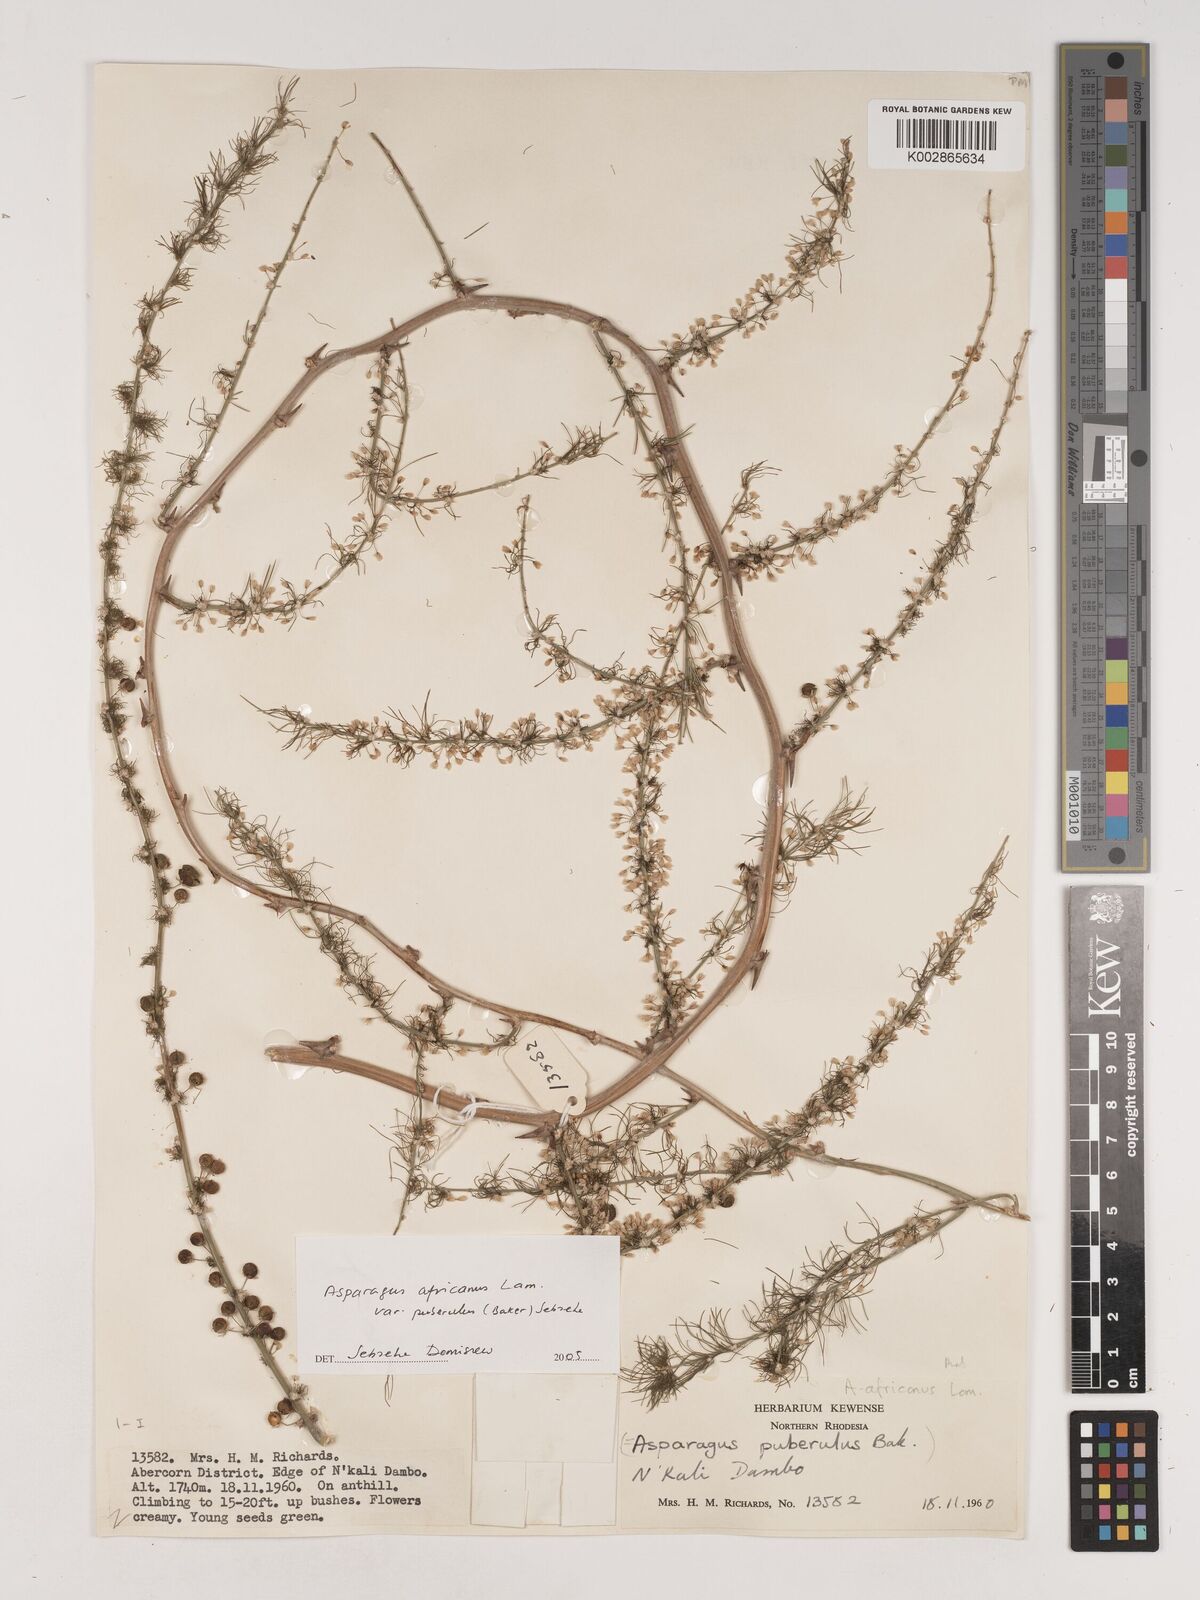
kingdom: Plantae
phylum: Tracheophyta
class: Liliopsida
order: Asparagales
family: Asparagaceae
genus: Asparagus
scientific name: Asparagus africanus
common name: Asparagus-fern
